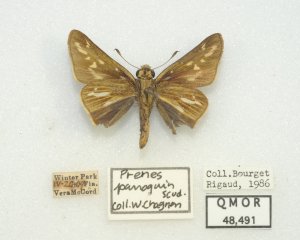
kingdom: Animalia
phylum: Arthropoda
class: Insecta
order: Lepidoptera
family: Hesperiidae
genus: Panoquina
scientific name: Panoquina panoquin
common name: Salt Marsh Skipper
